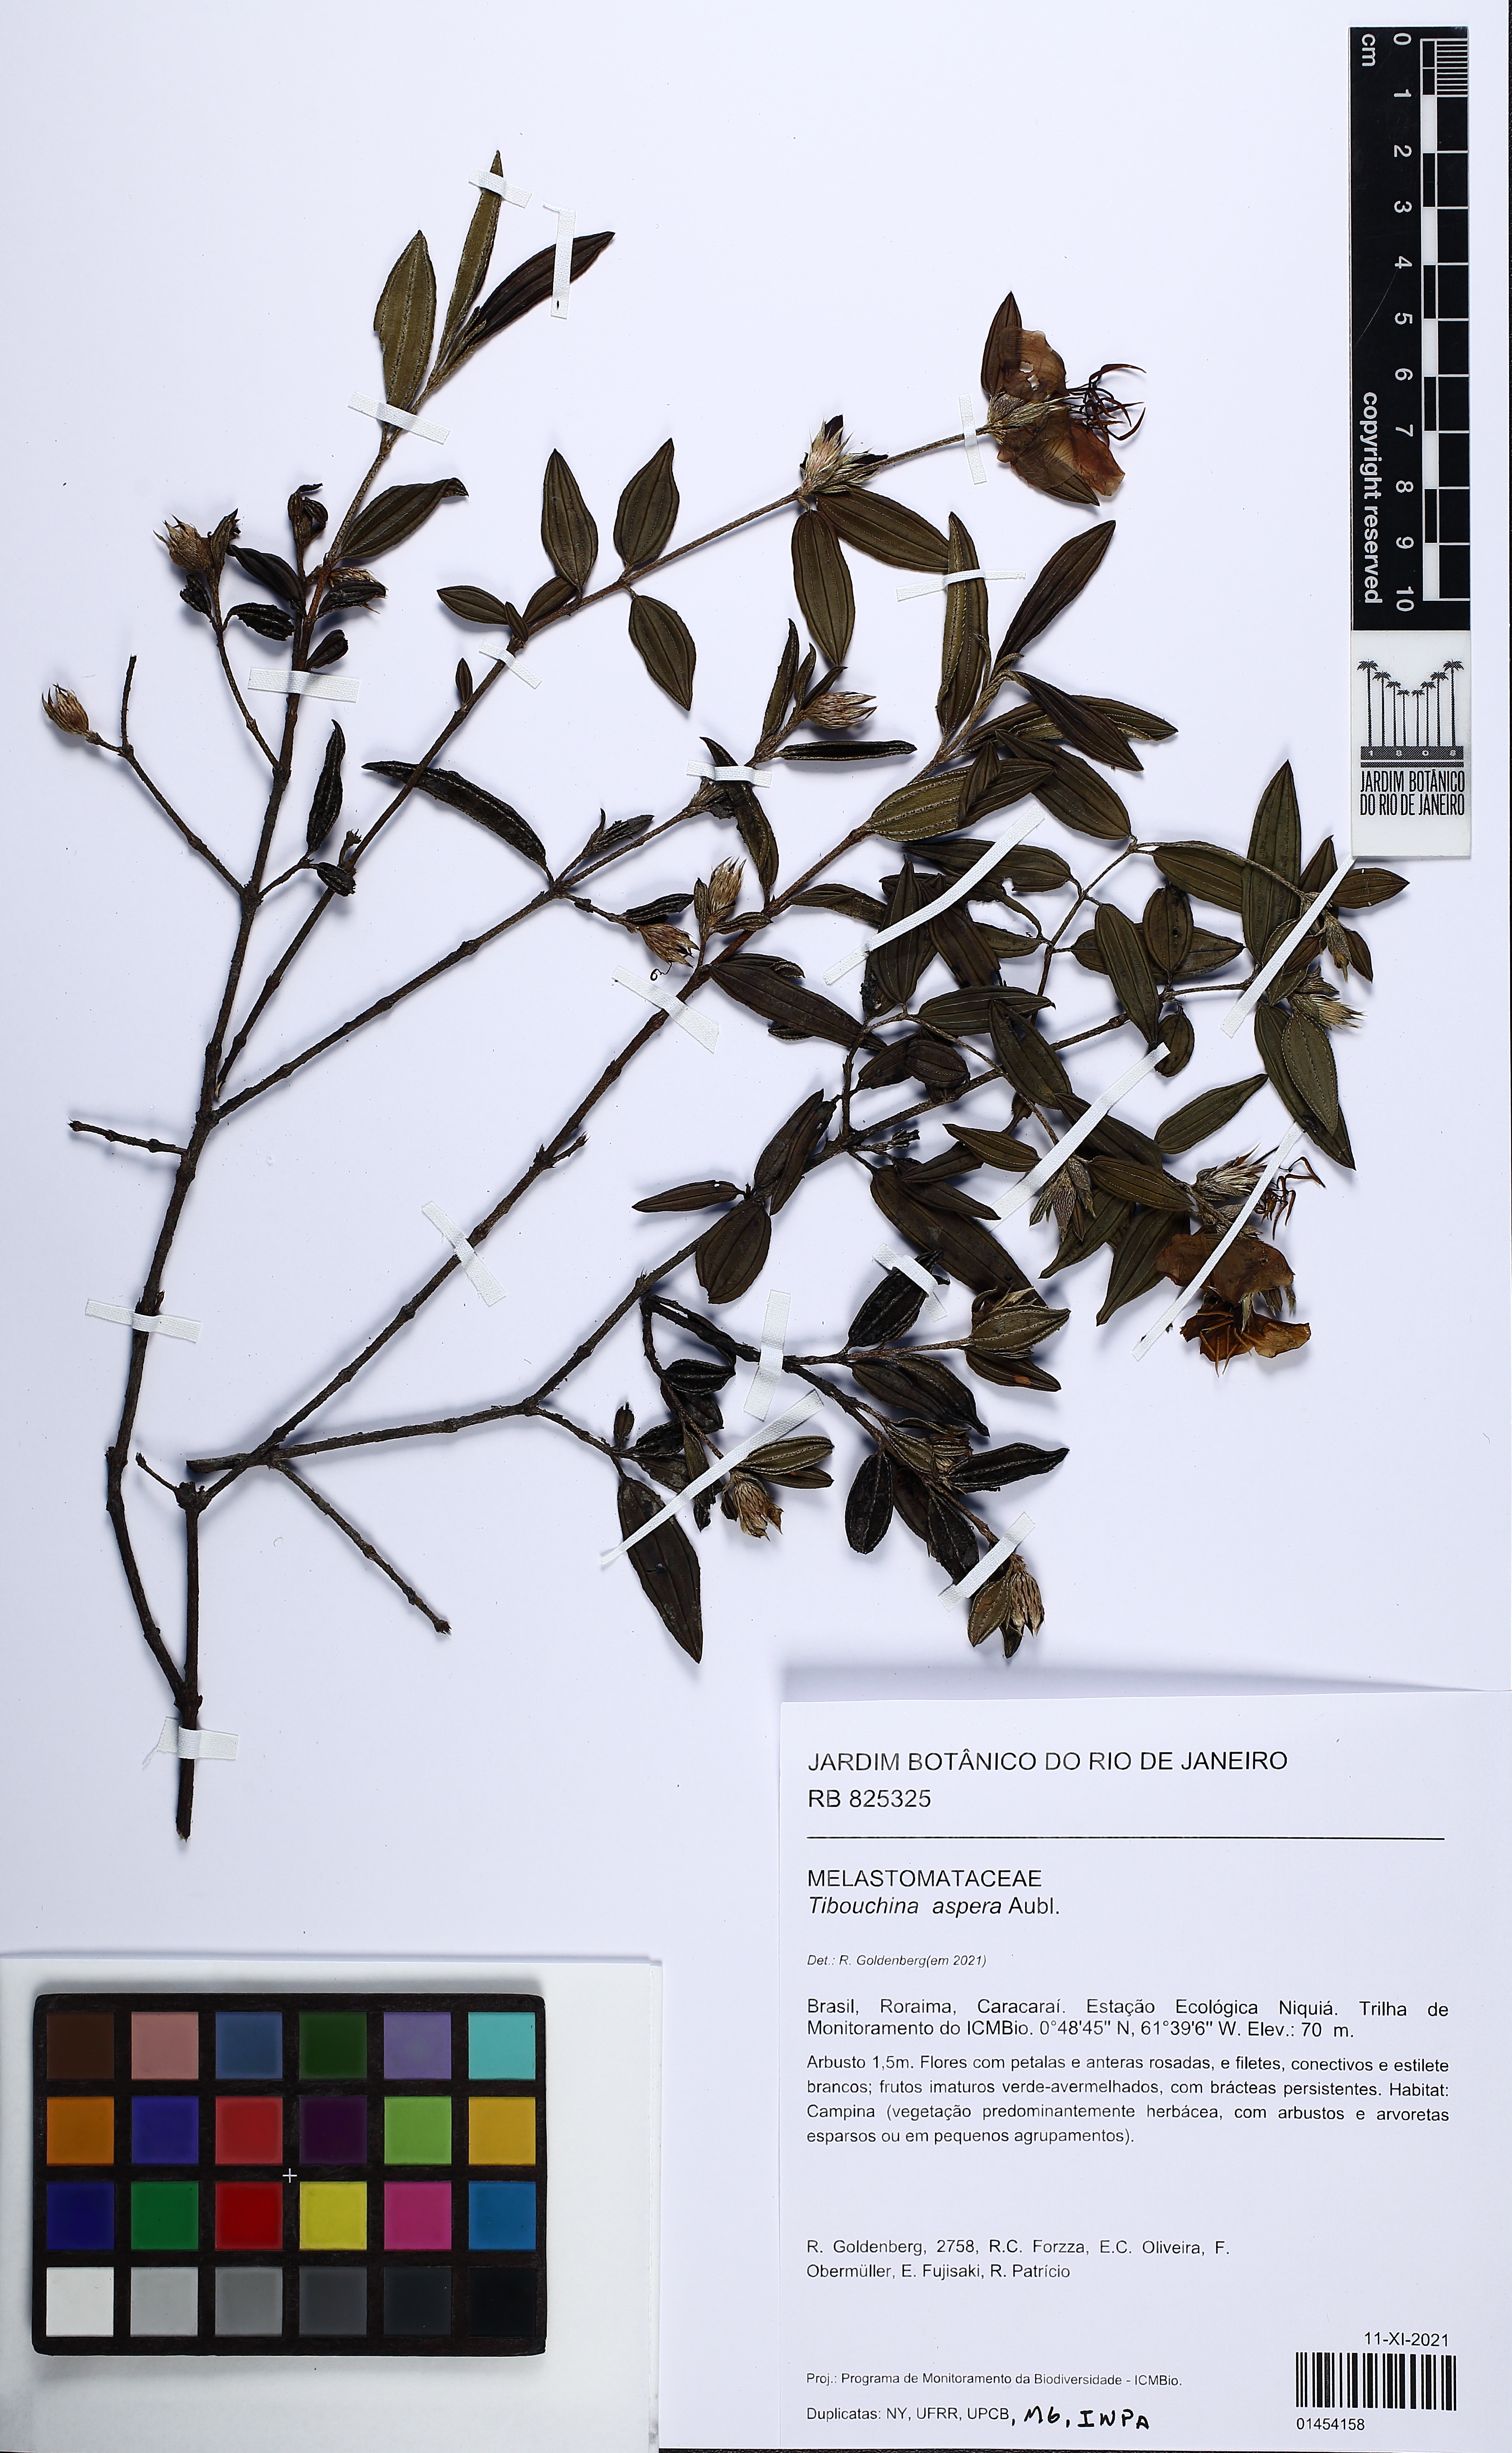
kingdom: Plantae
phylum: Tracheophyta
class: Magnoliopsida
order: Myrtales
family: Melastomataceae
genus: Tibouchina
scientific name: Tibouchina aspera
